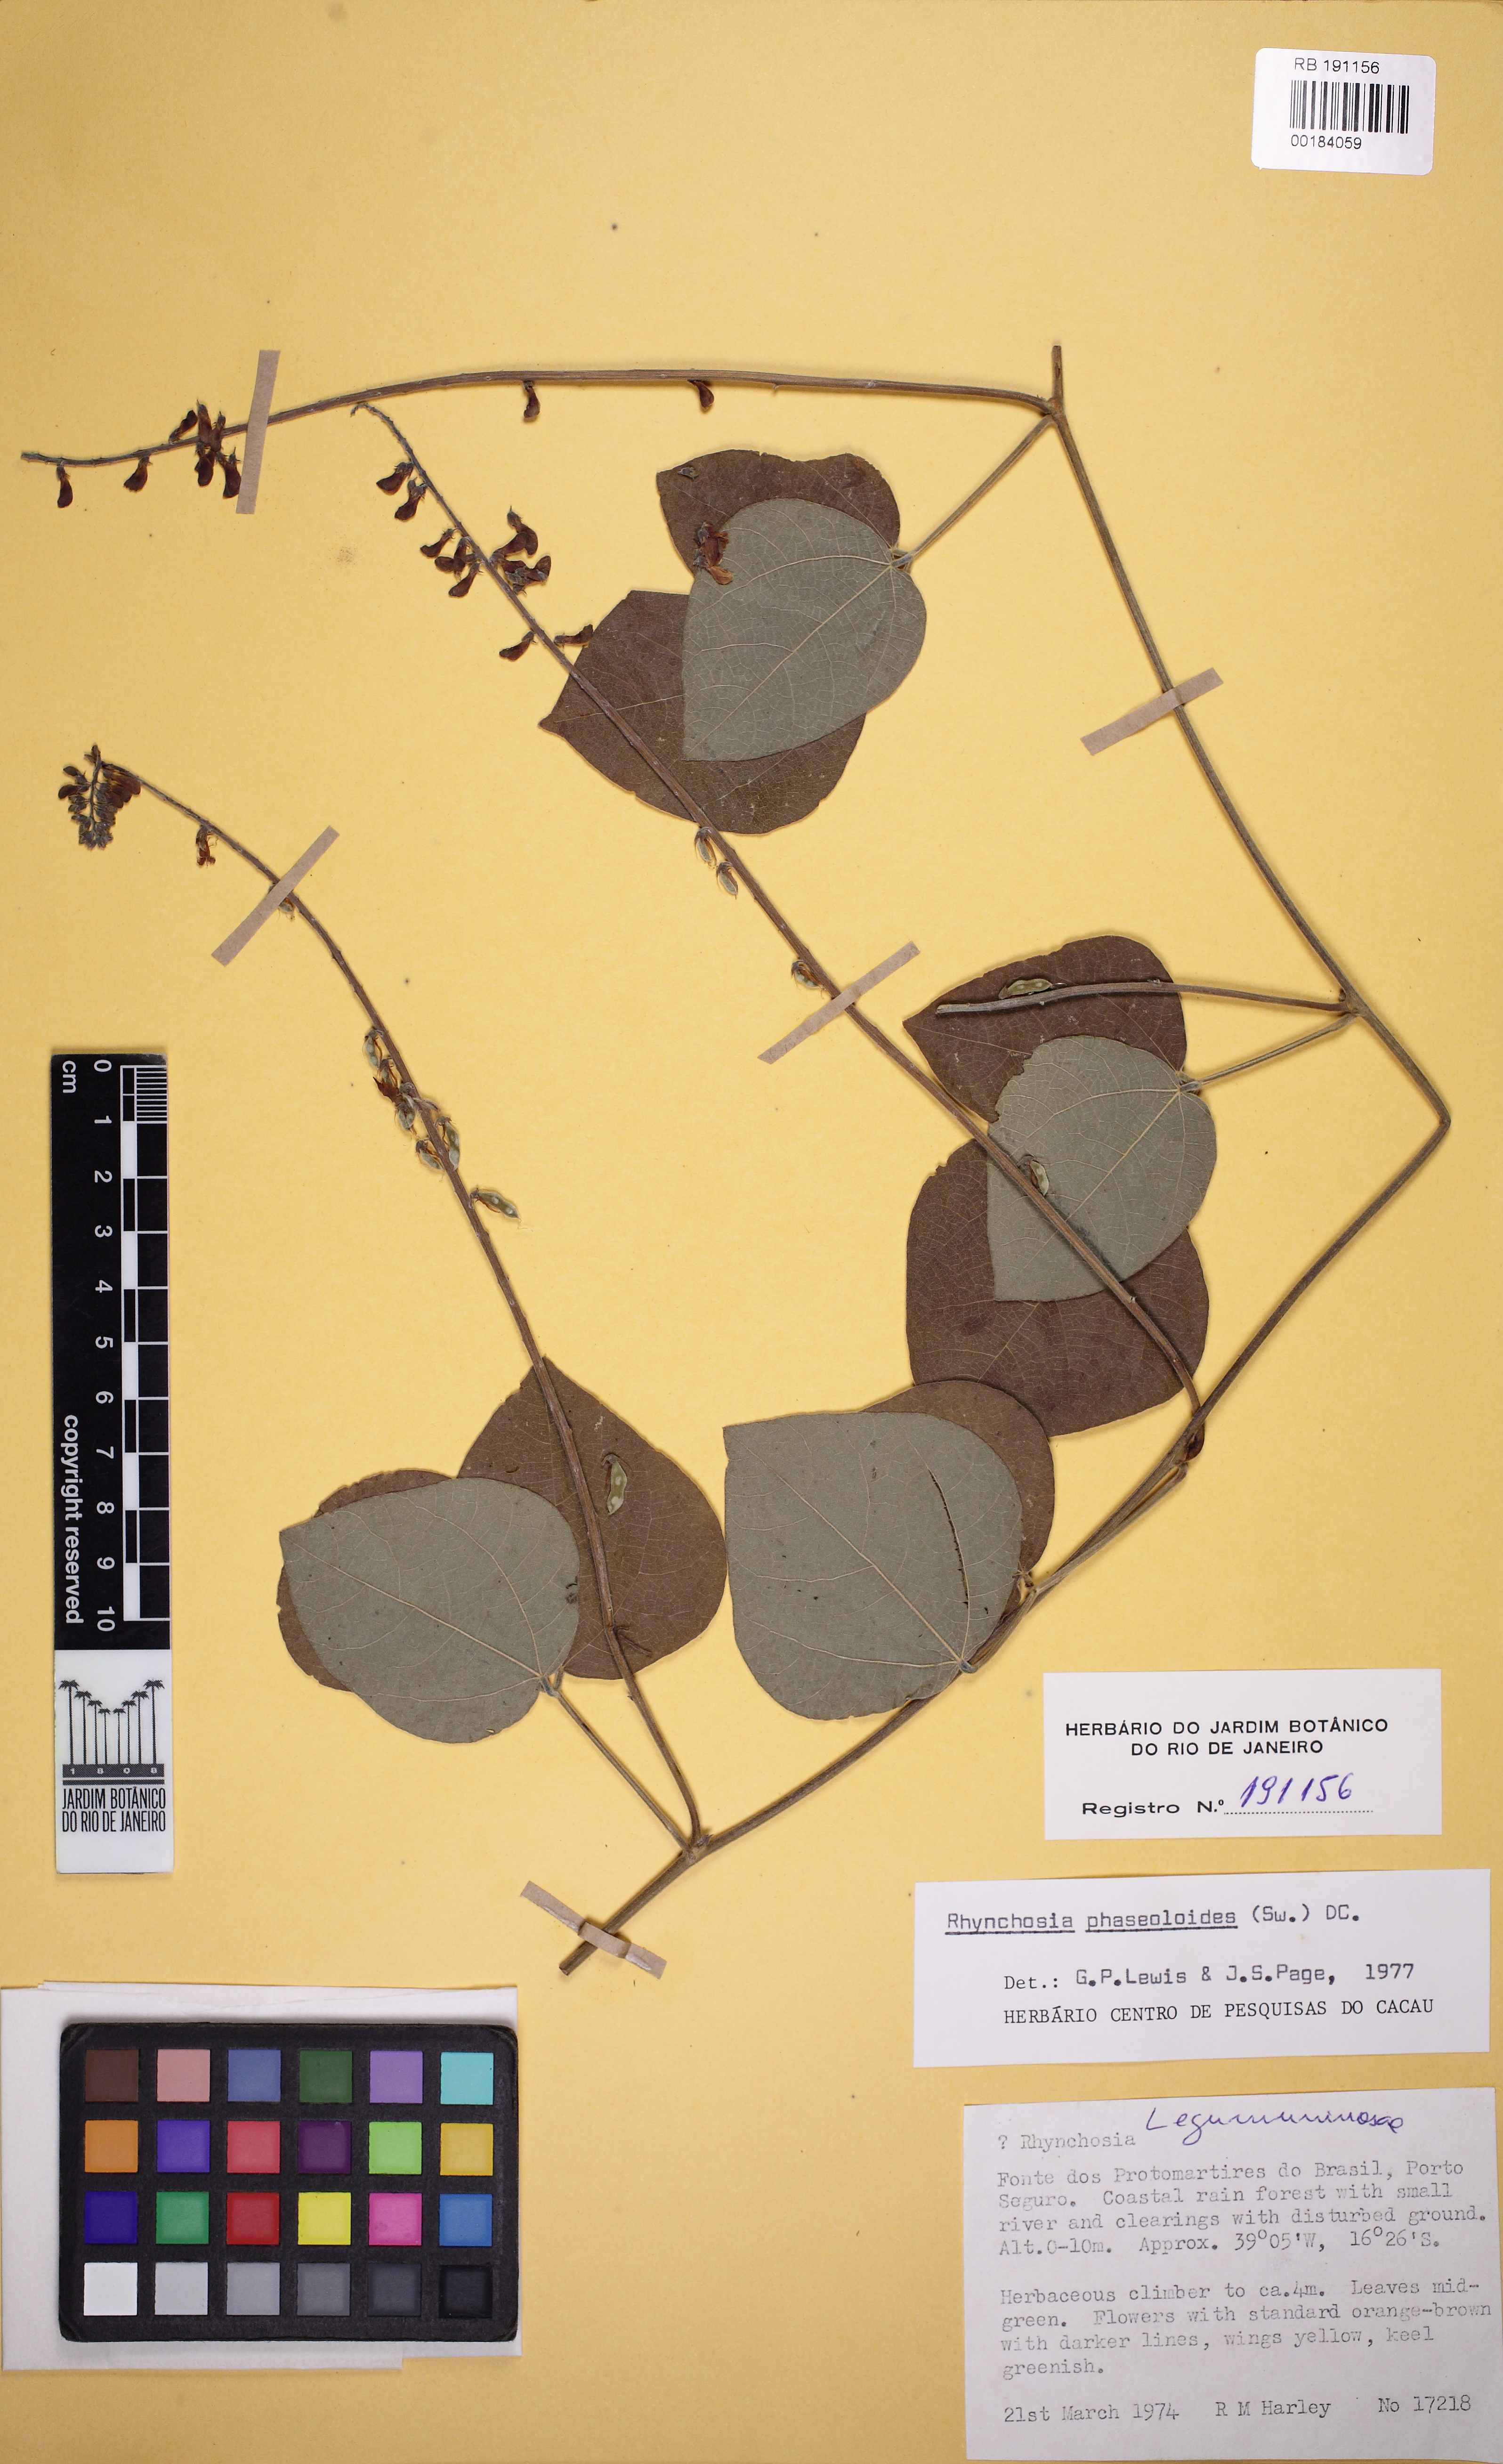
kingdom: Plantae
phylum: Tracheophyta
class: Magnoliopsida
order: Fabales
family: Fabaceae
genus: Rhynchosia
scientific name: Rhynchosia phaseoloides
